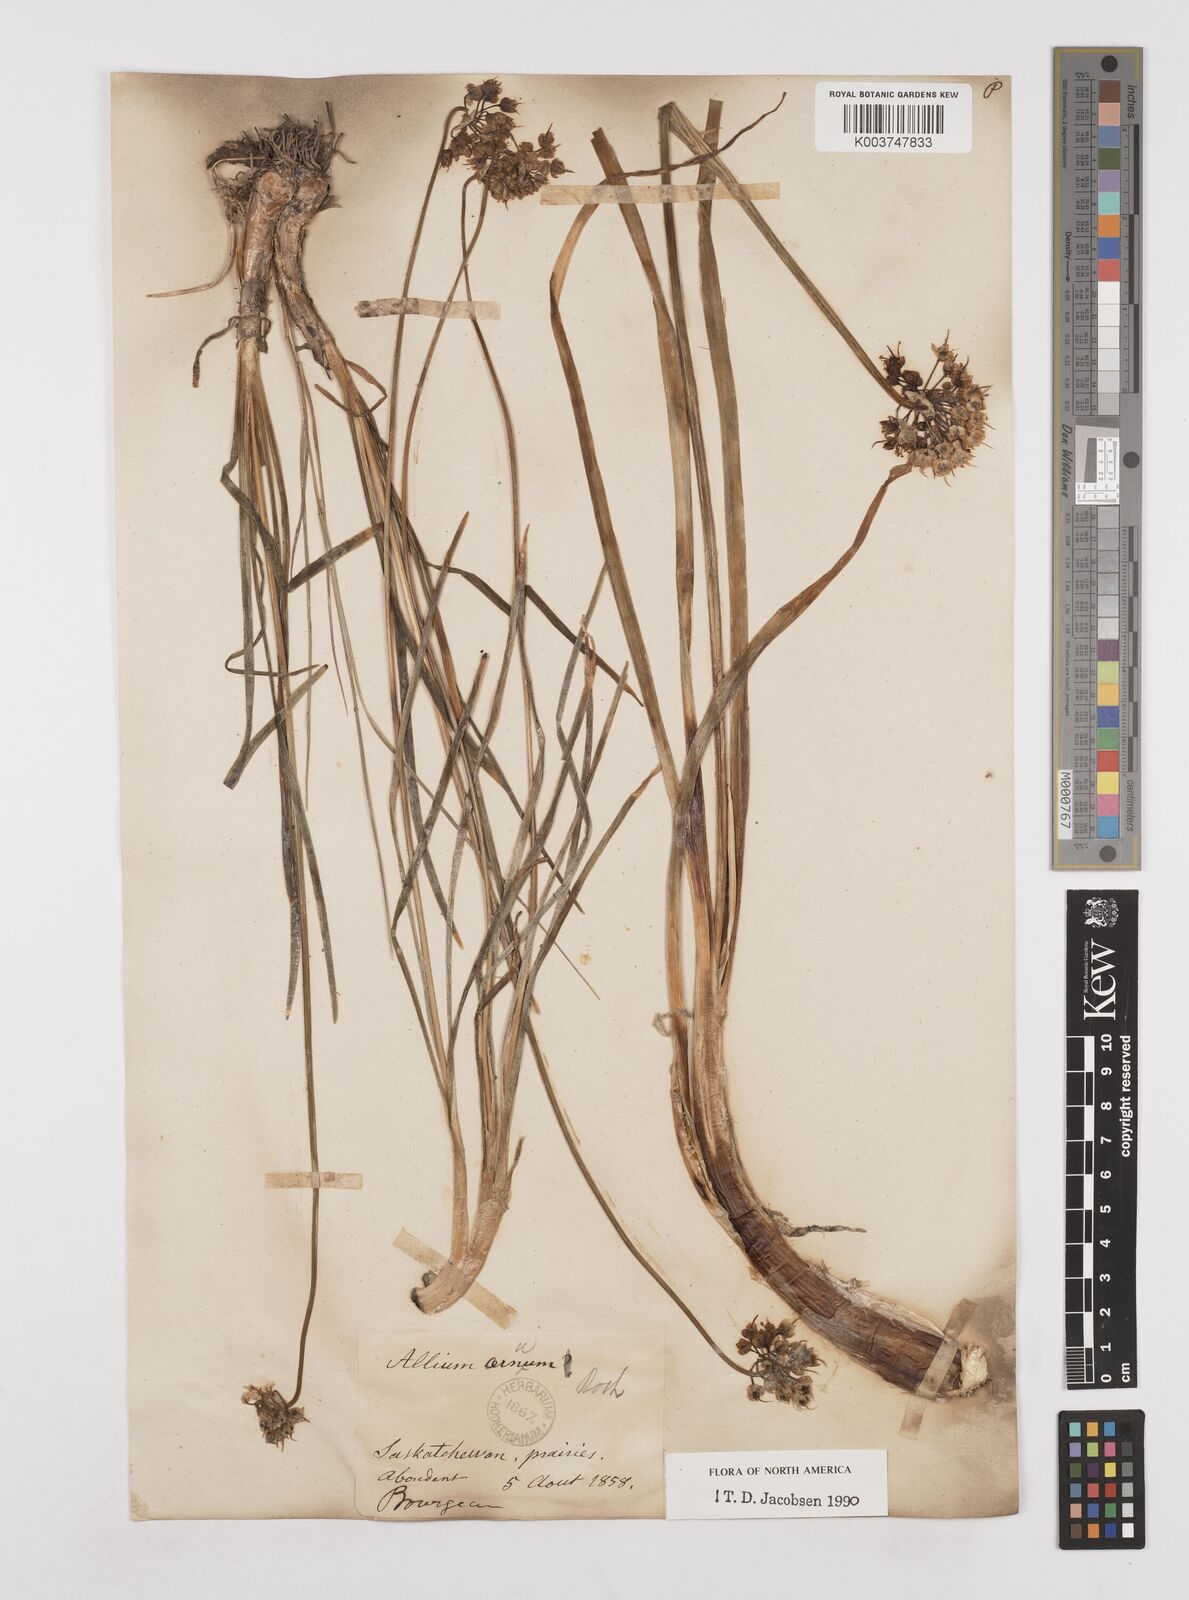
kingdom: Plantae
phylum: Tracheophyta
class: Liliopsida
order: Asparagales
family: Amaryllidaceae
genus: Allium
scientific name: Allium cernuum
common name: Nodding onion
